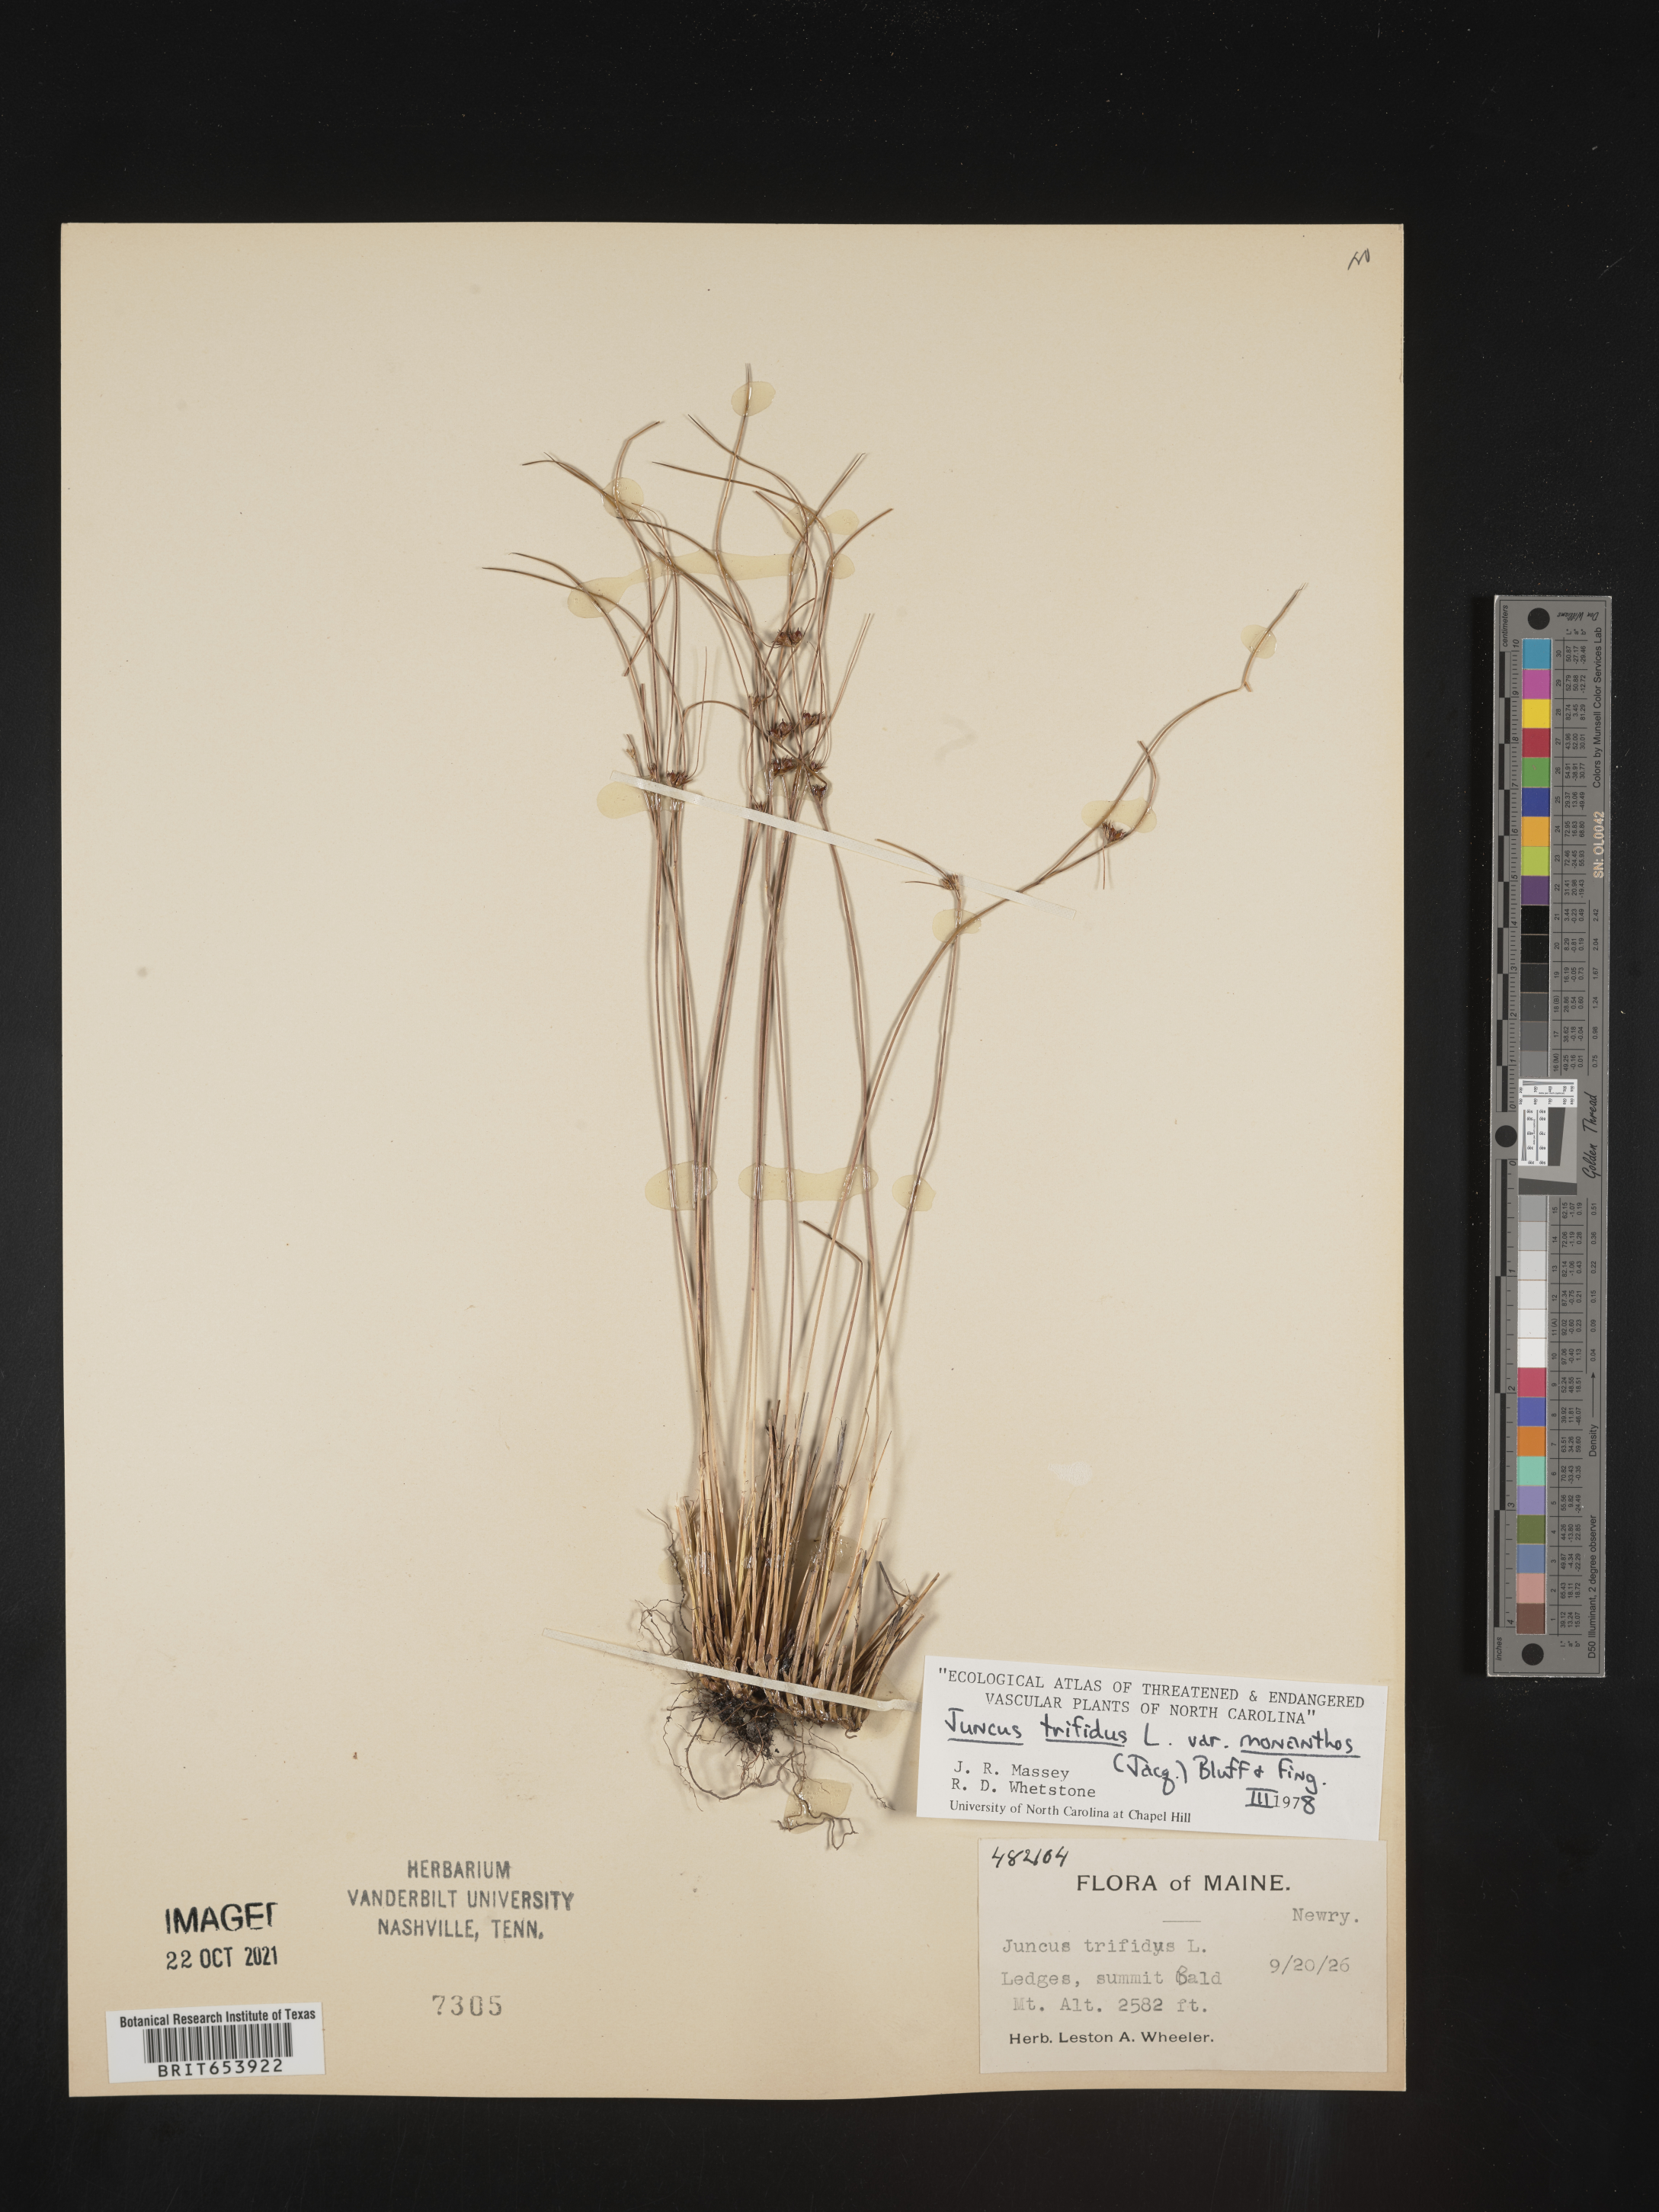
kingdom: Plantae
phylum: Tracheophyta
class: Liliopsida
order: Poales
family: Juncaceae
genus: Oreojuncus
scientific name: Oreojuncus trifidus
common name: Highland rush
